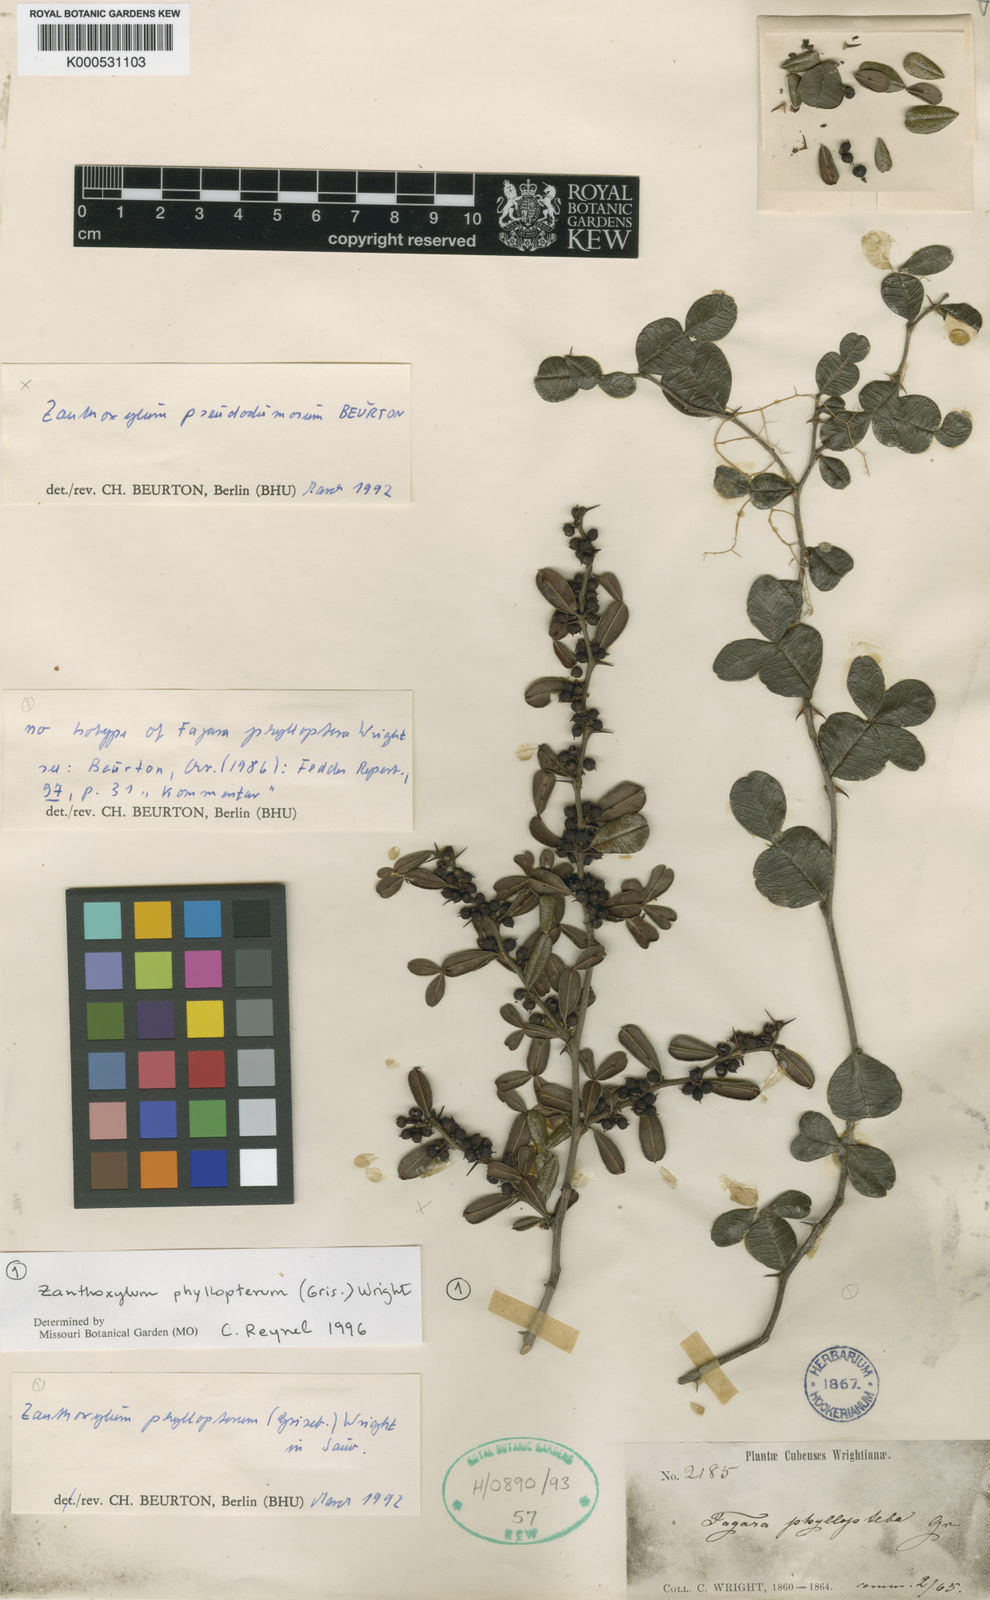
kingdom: Plantae
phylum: Tracheophyta
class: Magnoliopsida
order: Sapindales
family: Rutaceae
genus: Zanthoxylum
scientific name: Zanthoxylum phyllopterum
